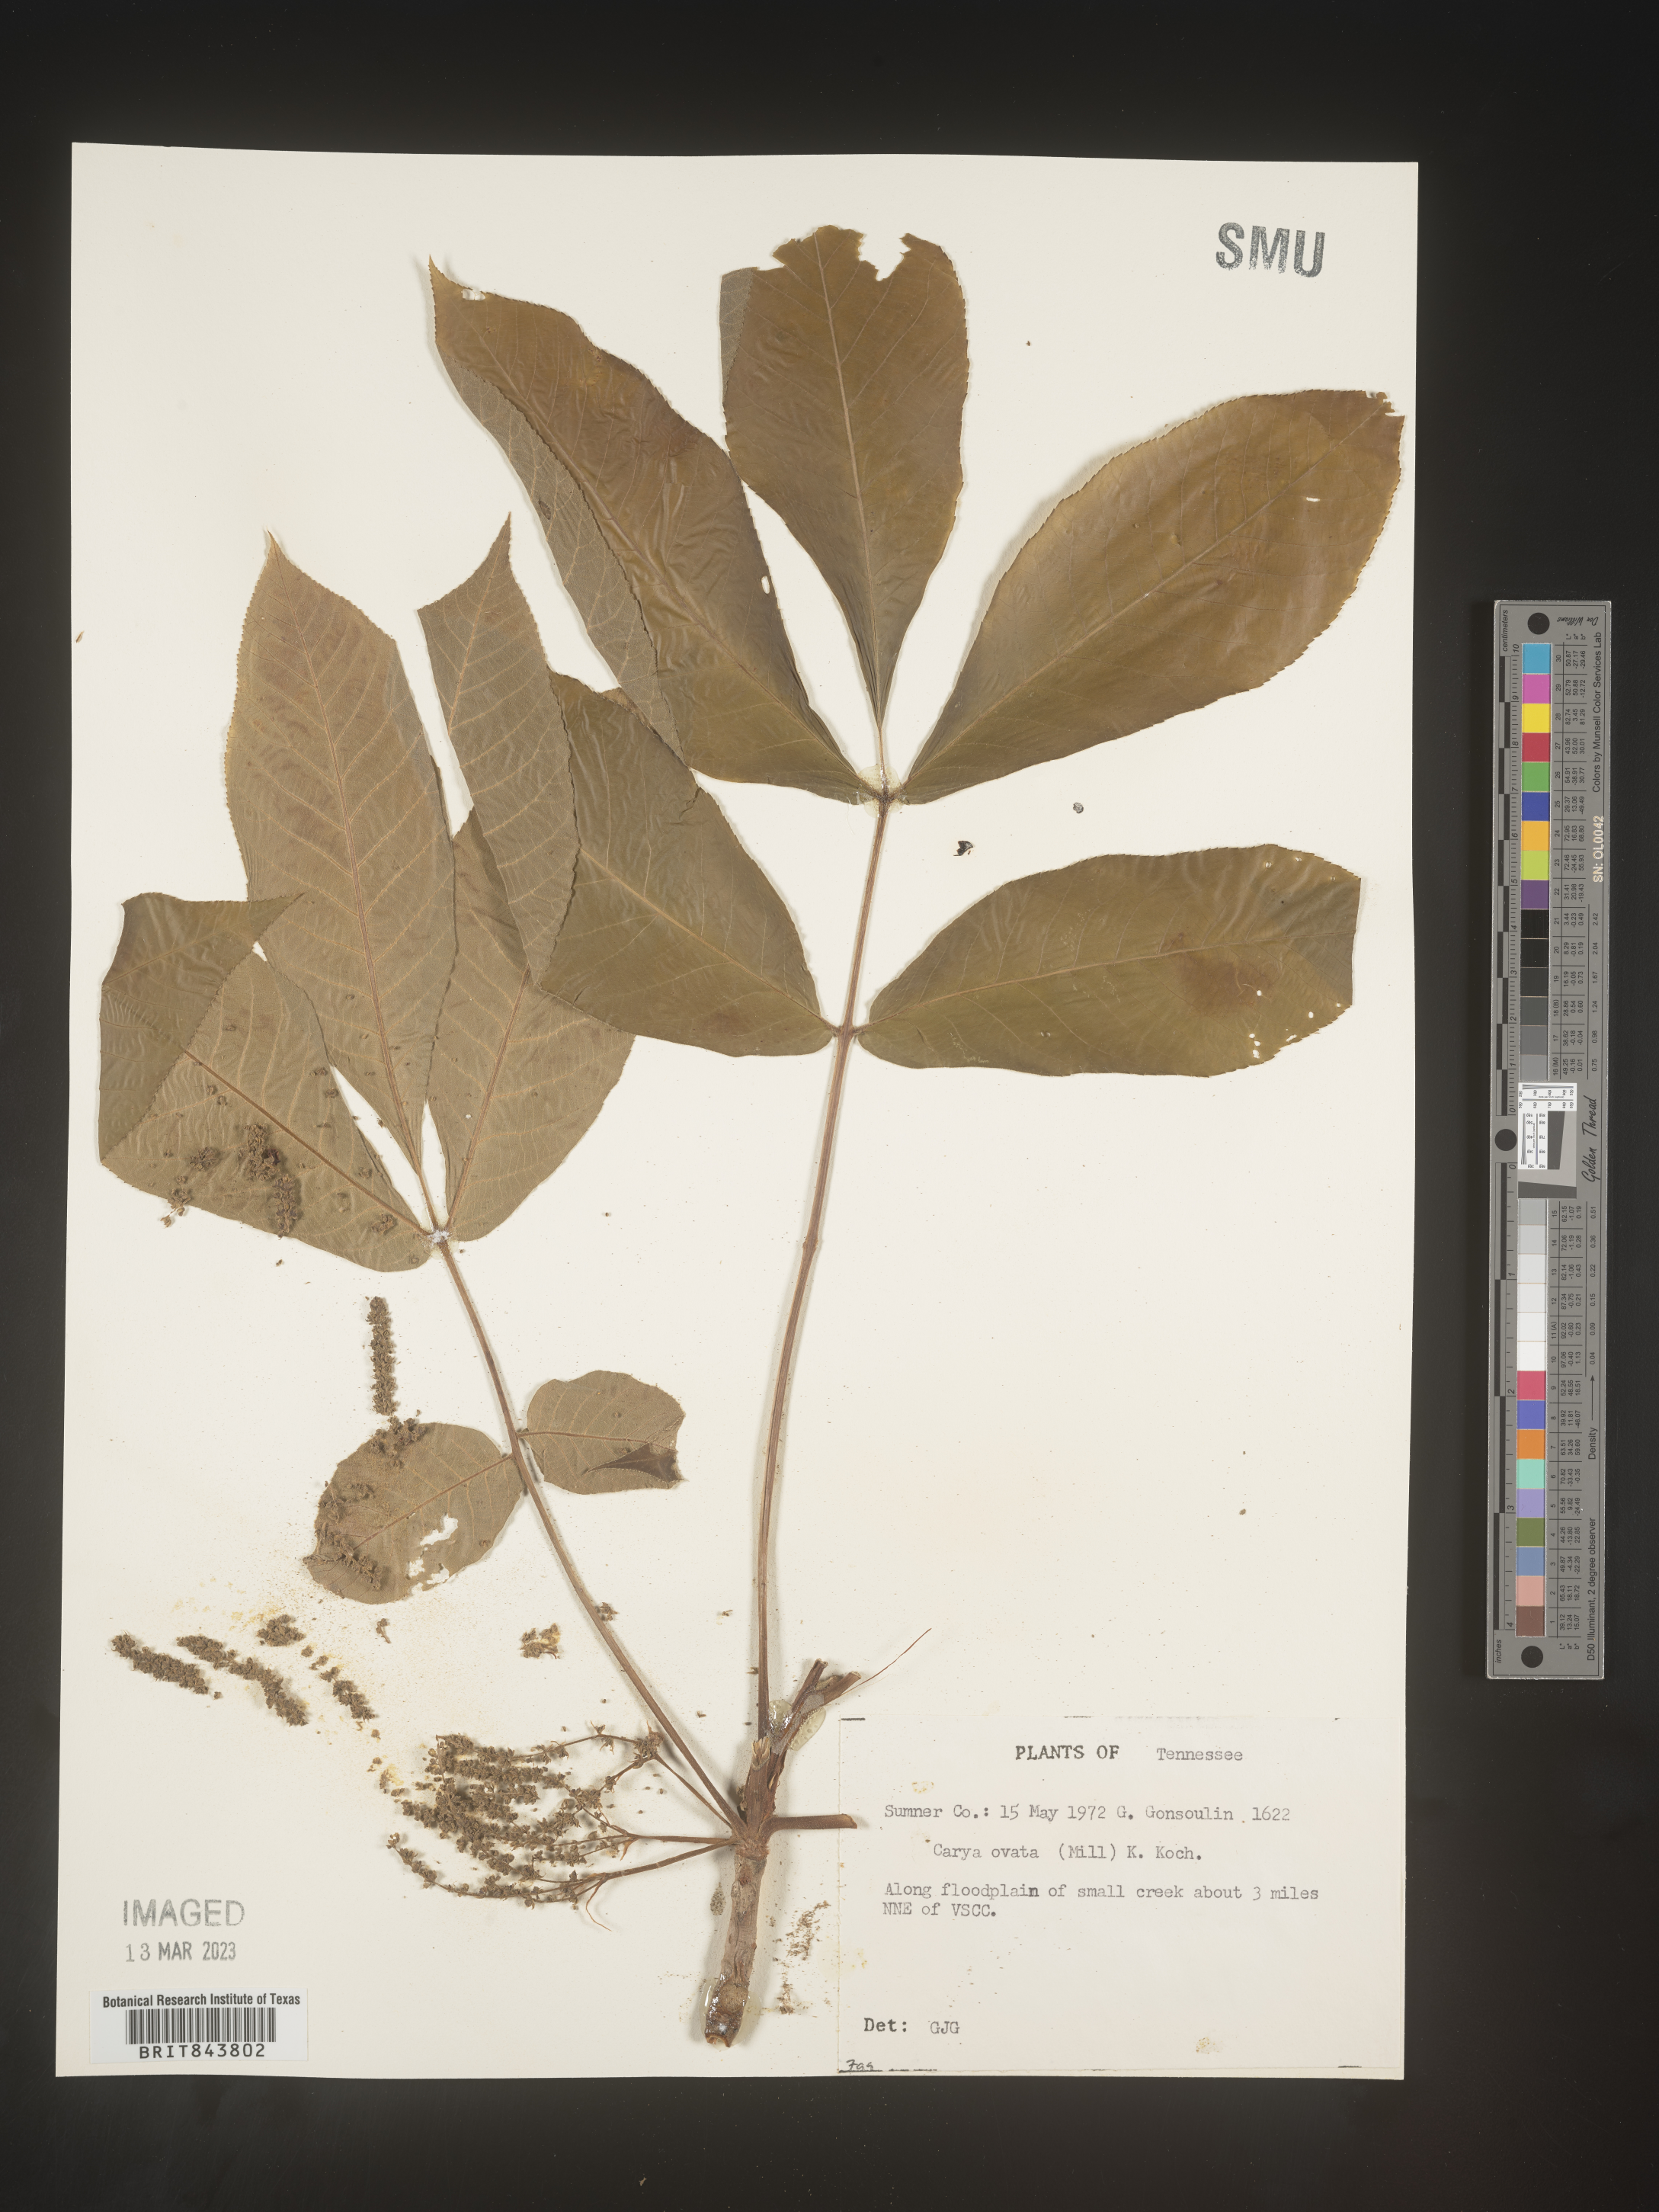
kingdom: Plantae
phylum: Tracheophyta
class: Magnoliopsida
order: Fagales
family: Juglandaceae
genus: Carya
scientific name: Carya ovata
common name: Shagbark hickory
